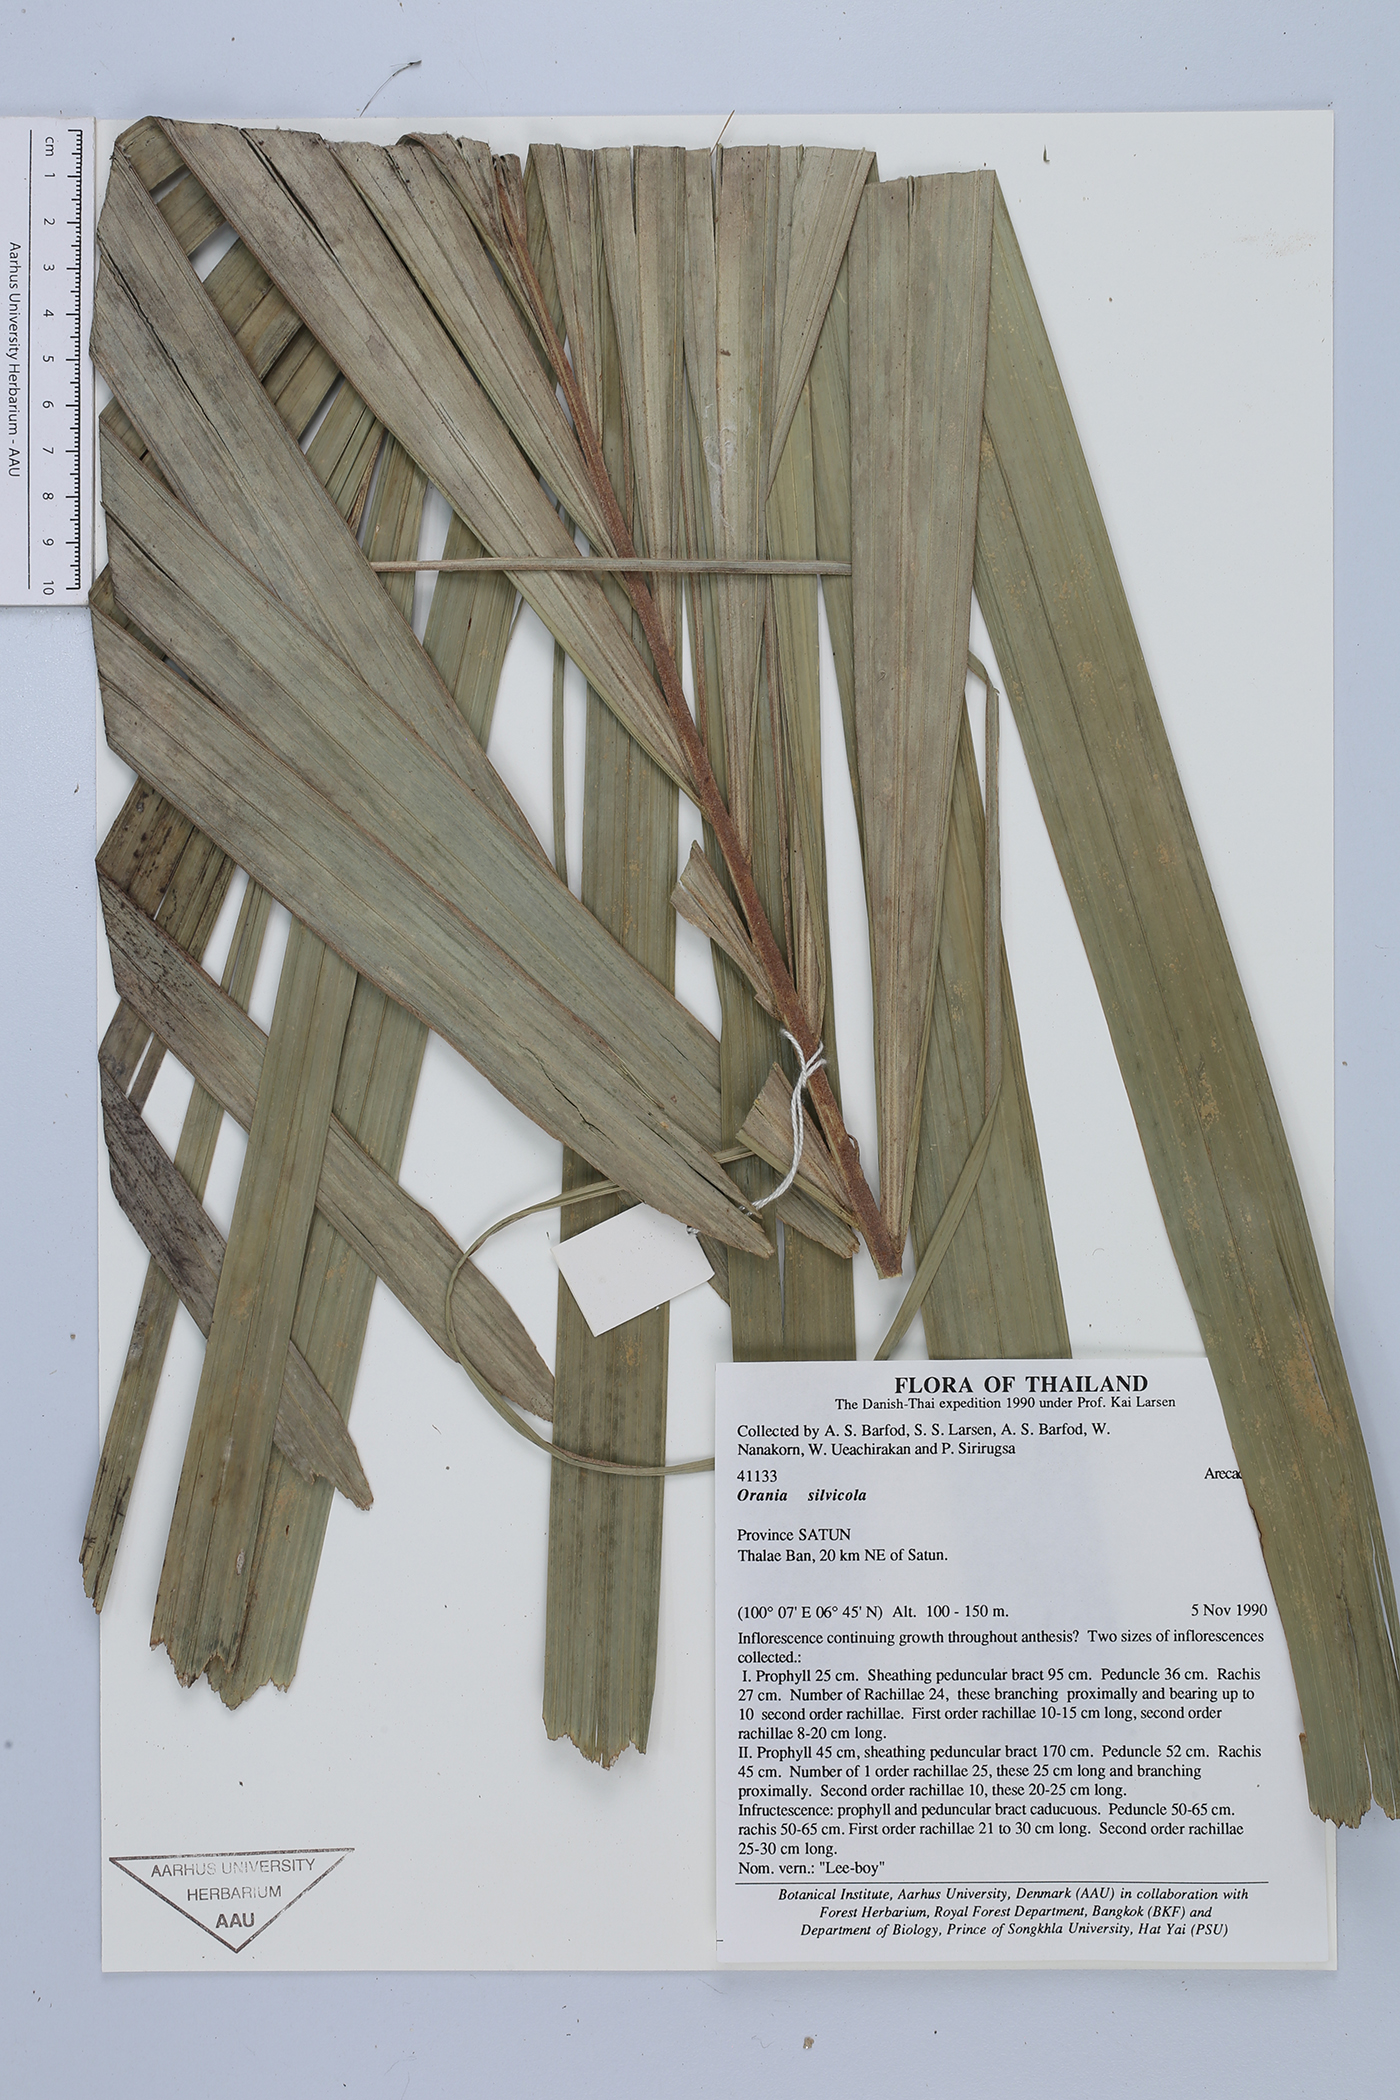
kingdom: Plantae
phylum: Tracheophyta
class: Liliopsida
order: Arecales
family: Arecaceae
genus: Orania
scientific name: Orania sylvicola
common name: Forest palm
